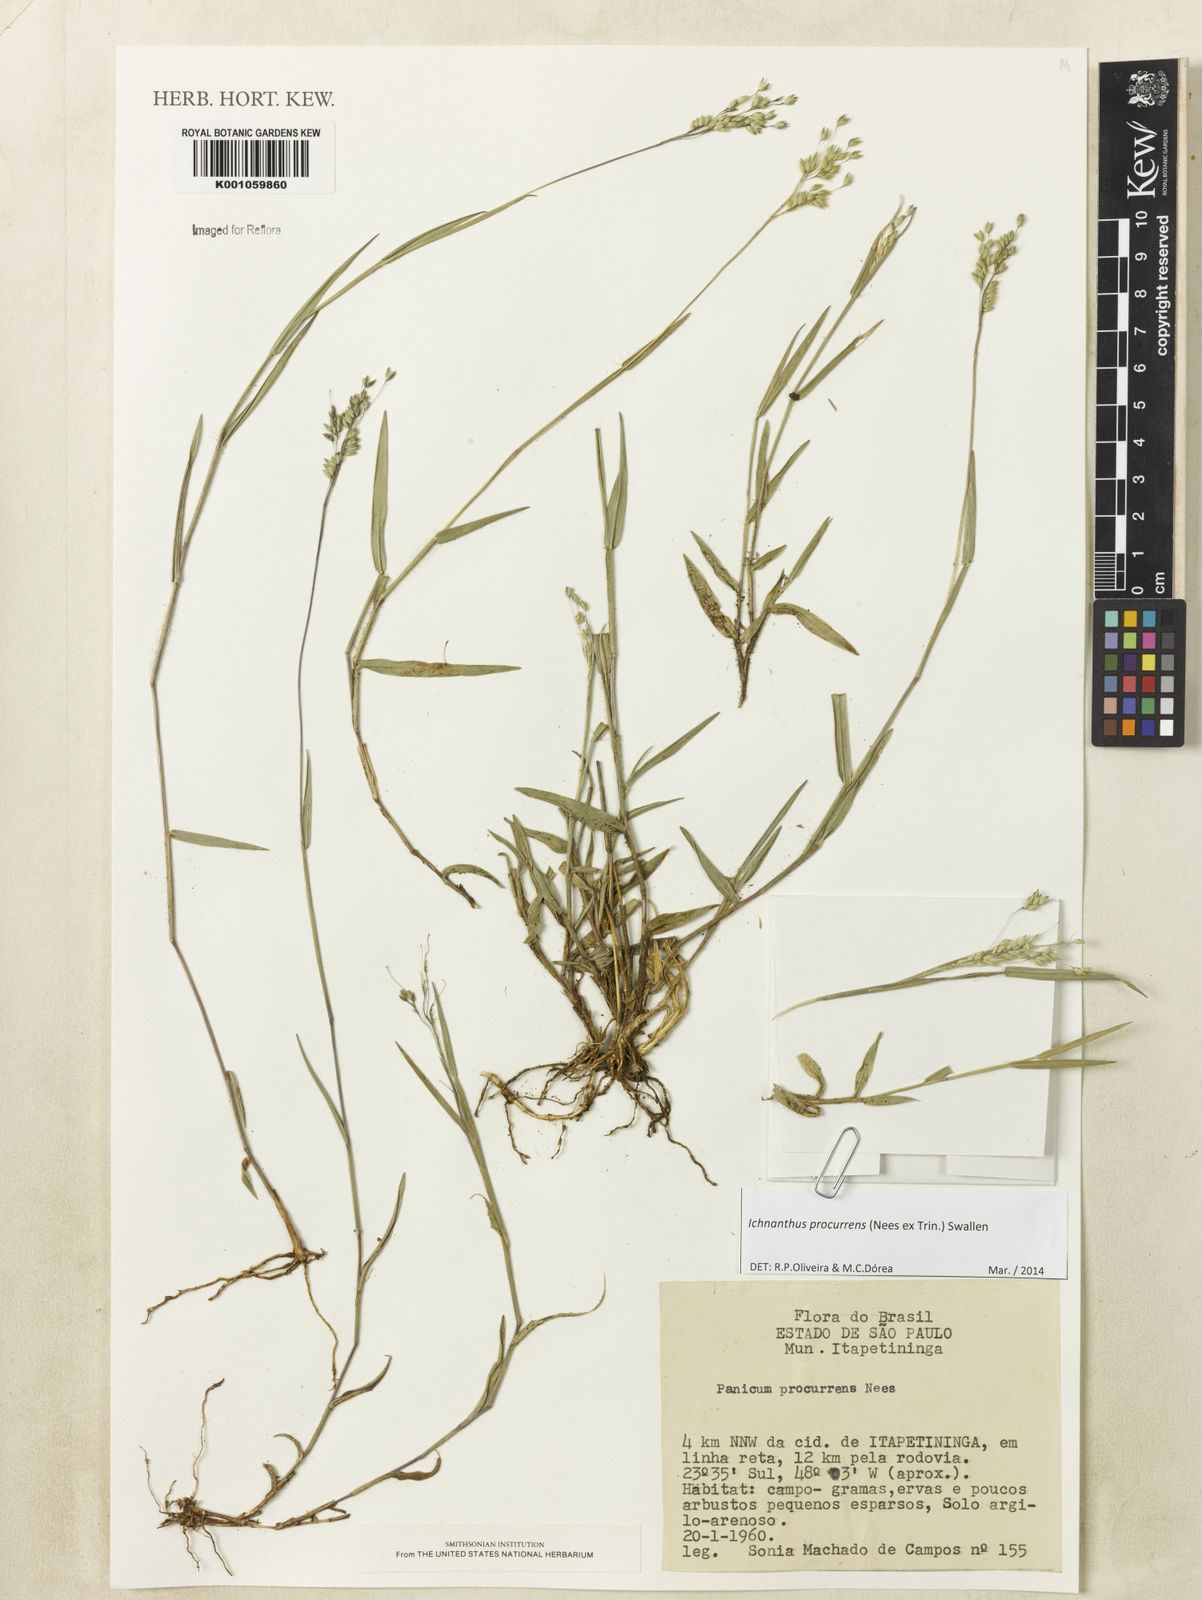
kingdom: Plantae
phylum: Tracheophyta
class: Liliopsida
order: Poales
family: Poaceae
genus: Oedochloa
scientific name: Oedochloa procurrens
